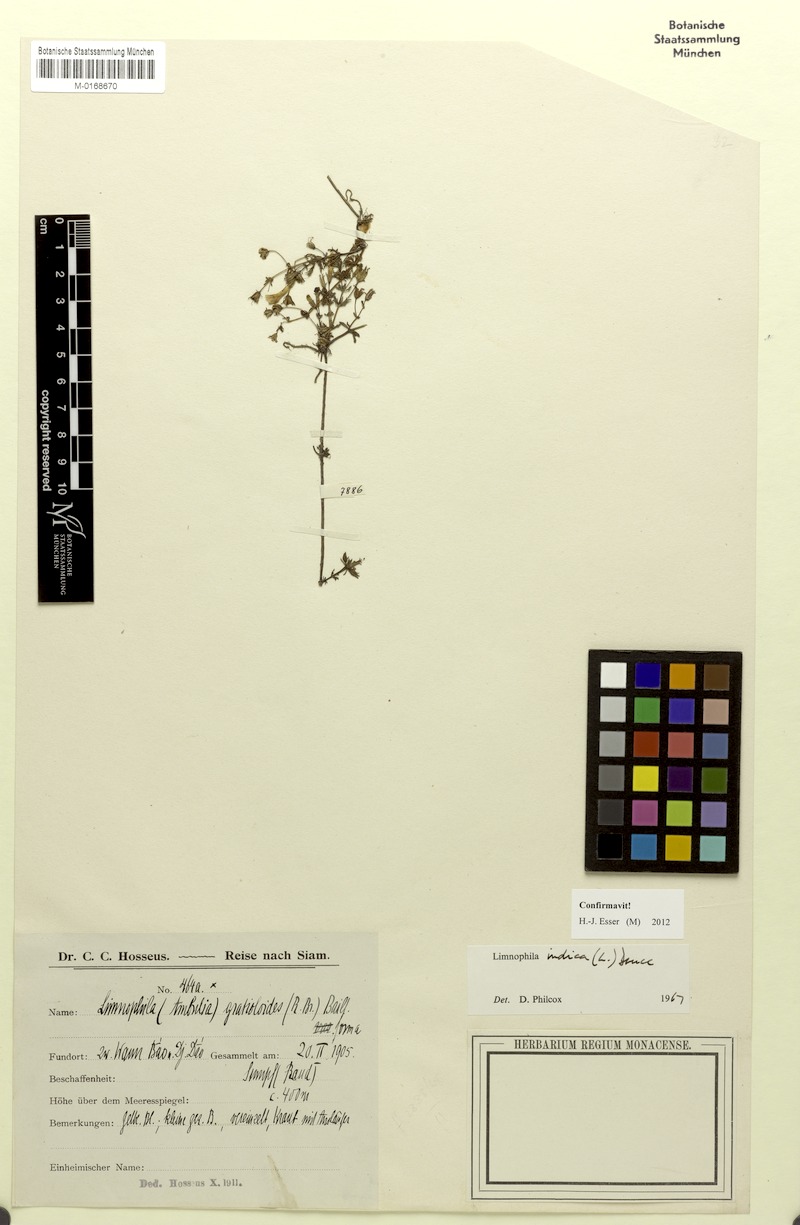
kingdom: Plantae
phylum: Tracheophyta
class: Magnoliopsida
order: Lamiales
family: Plantaginaceae
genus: Limnophila
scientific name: Limnophila indica
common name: Indian marshweed
